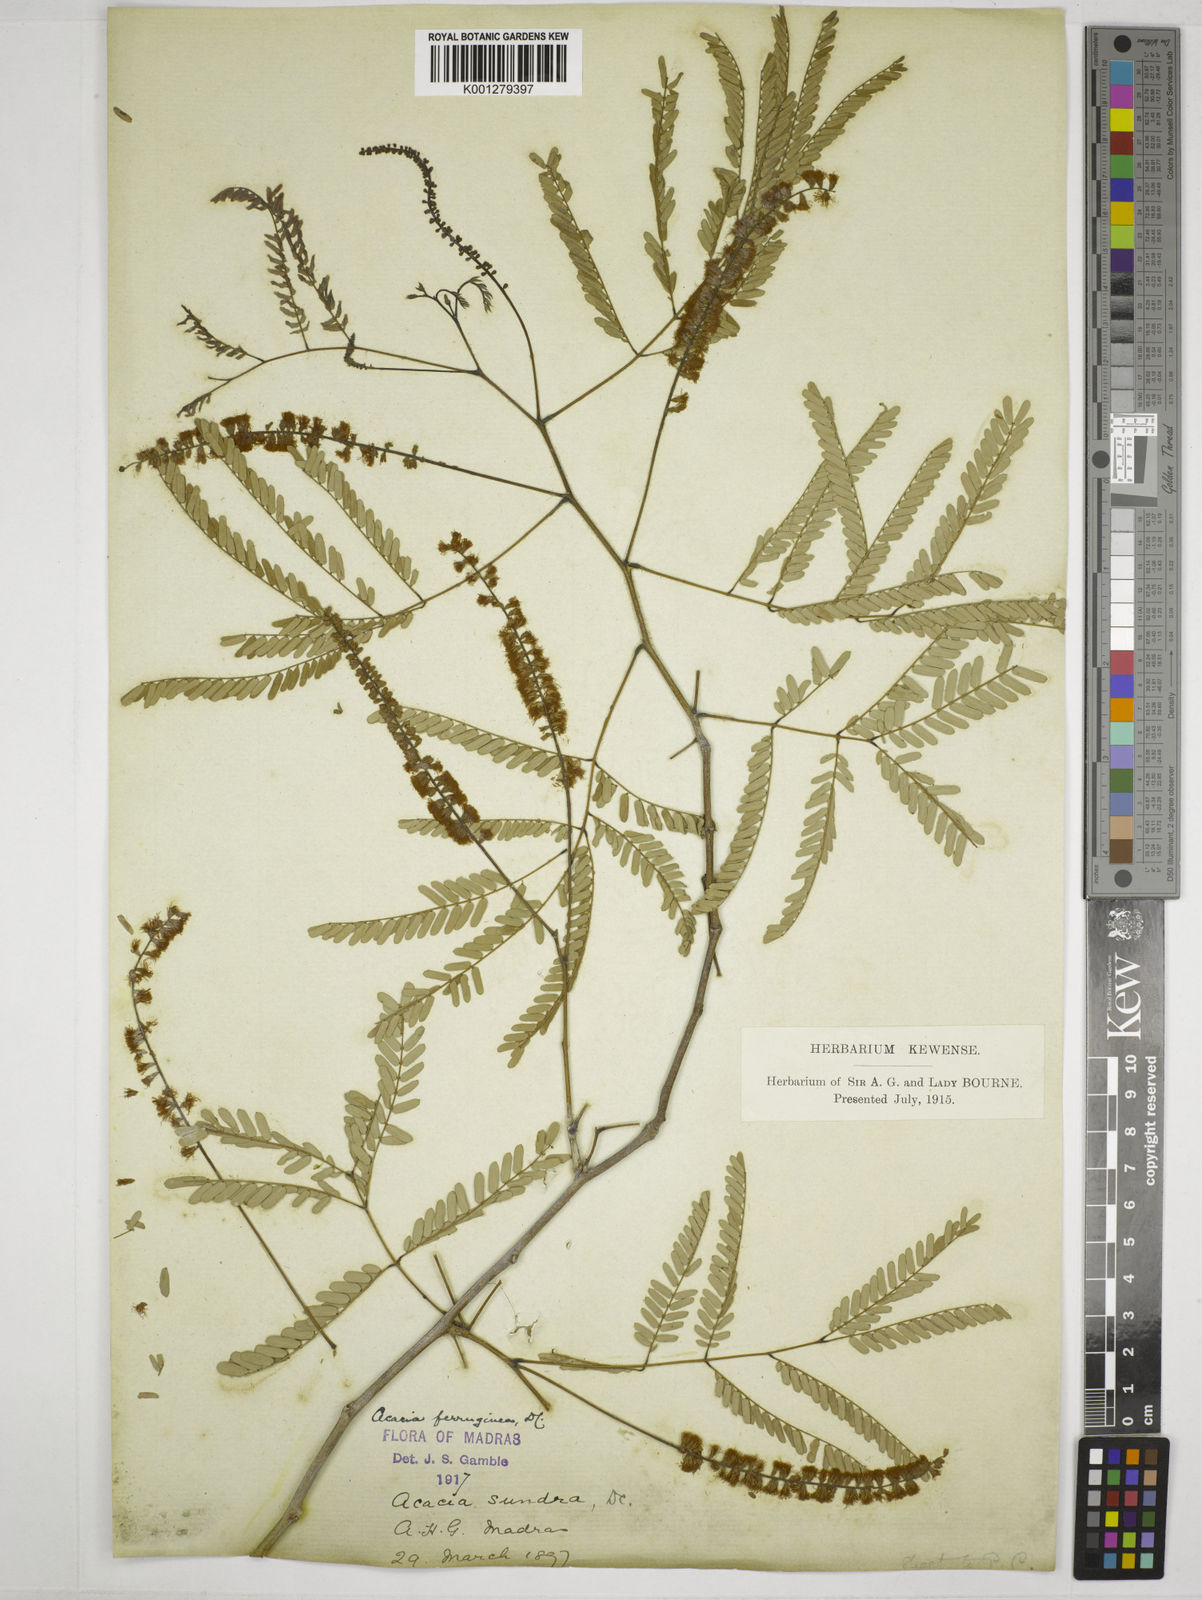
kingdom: Plantae
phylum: Tracheophyta
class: Magnoliopsida
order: Fabales
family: Fabaceae
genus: Senegalia
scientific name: Senegalia ferruginea
